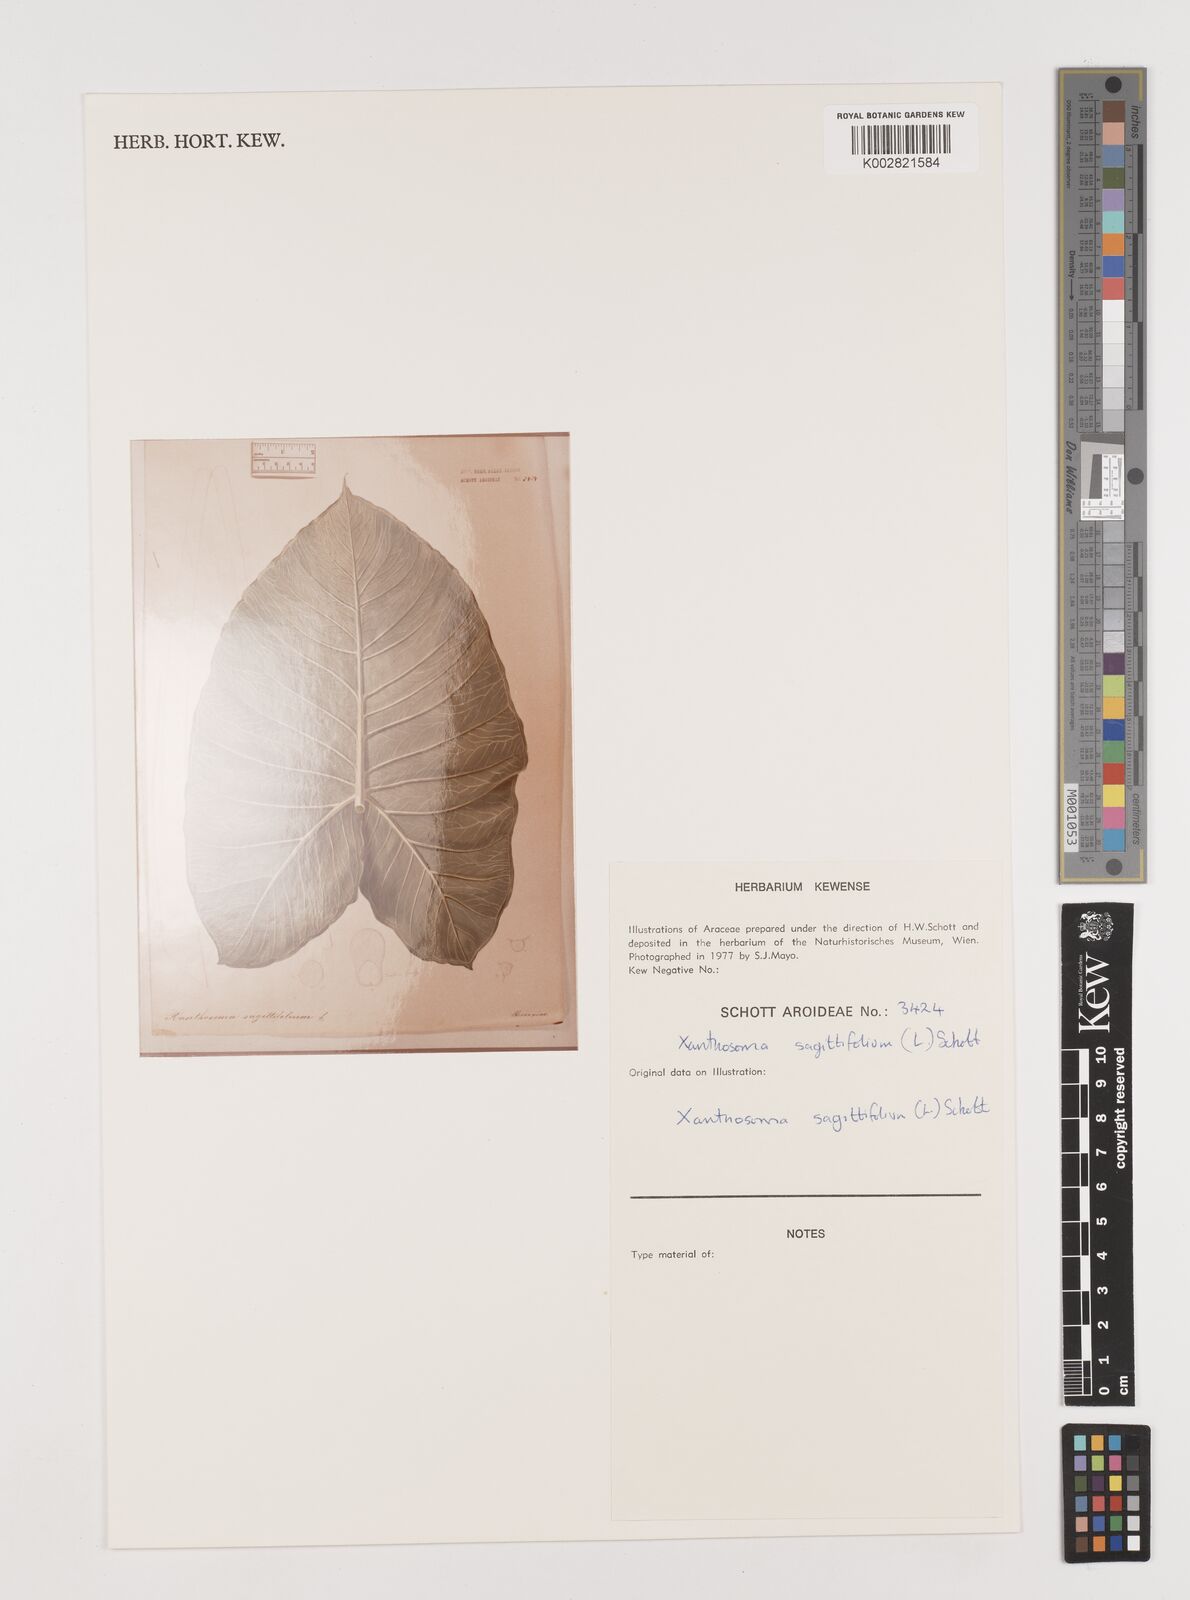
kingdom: Plantae
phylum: Tracheophyta
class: Liliopsida
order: Alismatales
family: Araceae
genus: Xanthosoma
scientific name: Xanthosoma sagittifolium
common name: Arrowleaf elephant's ear
